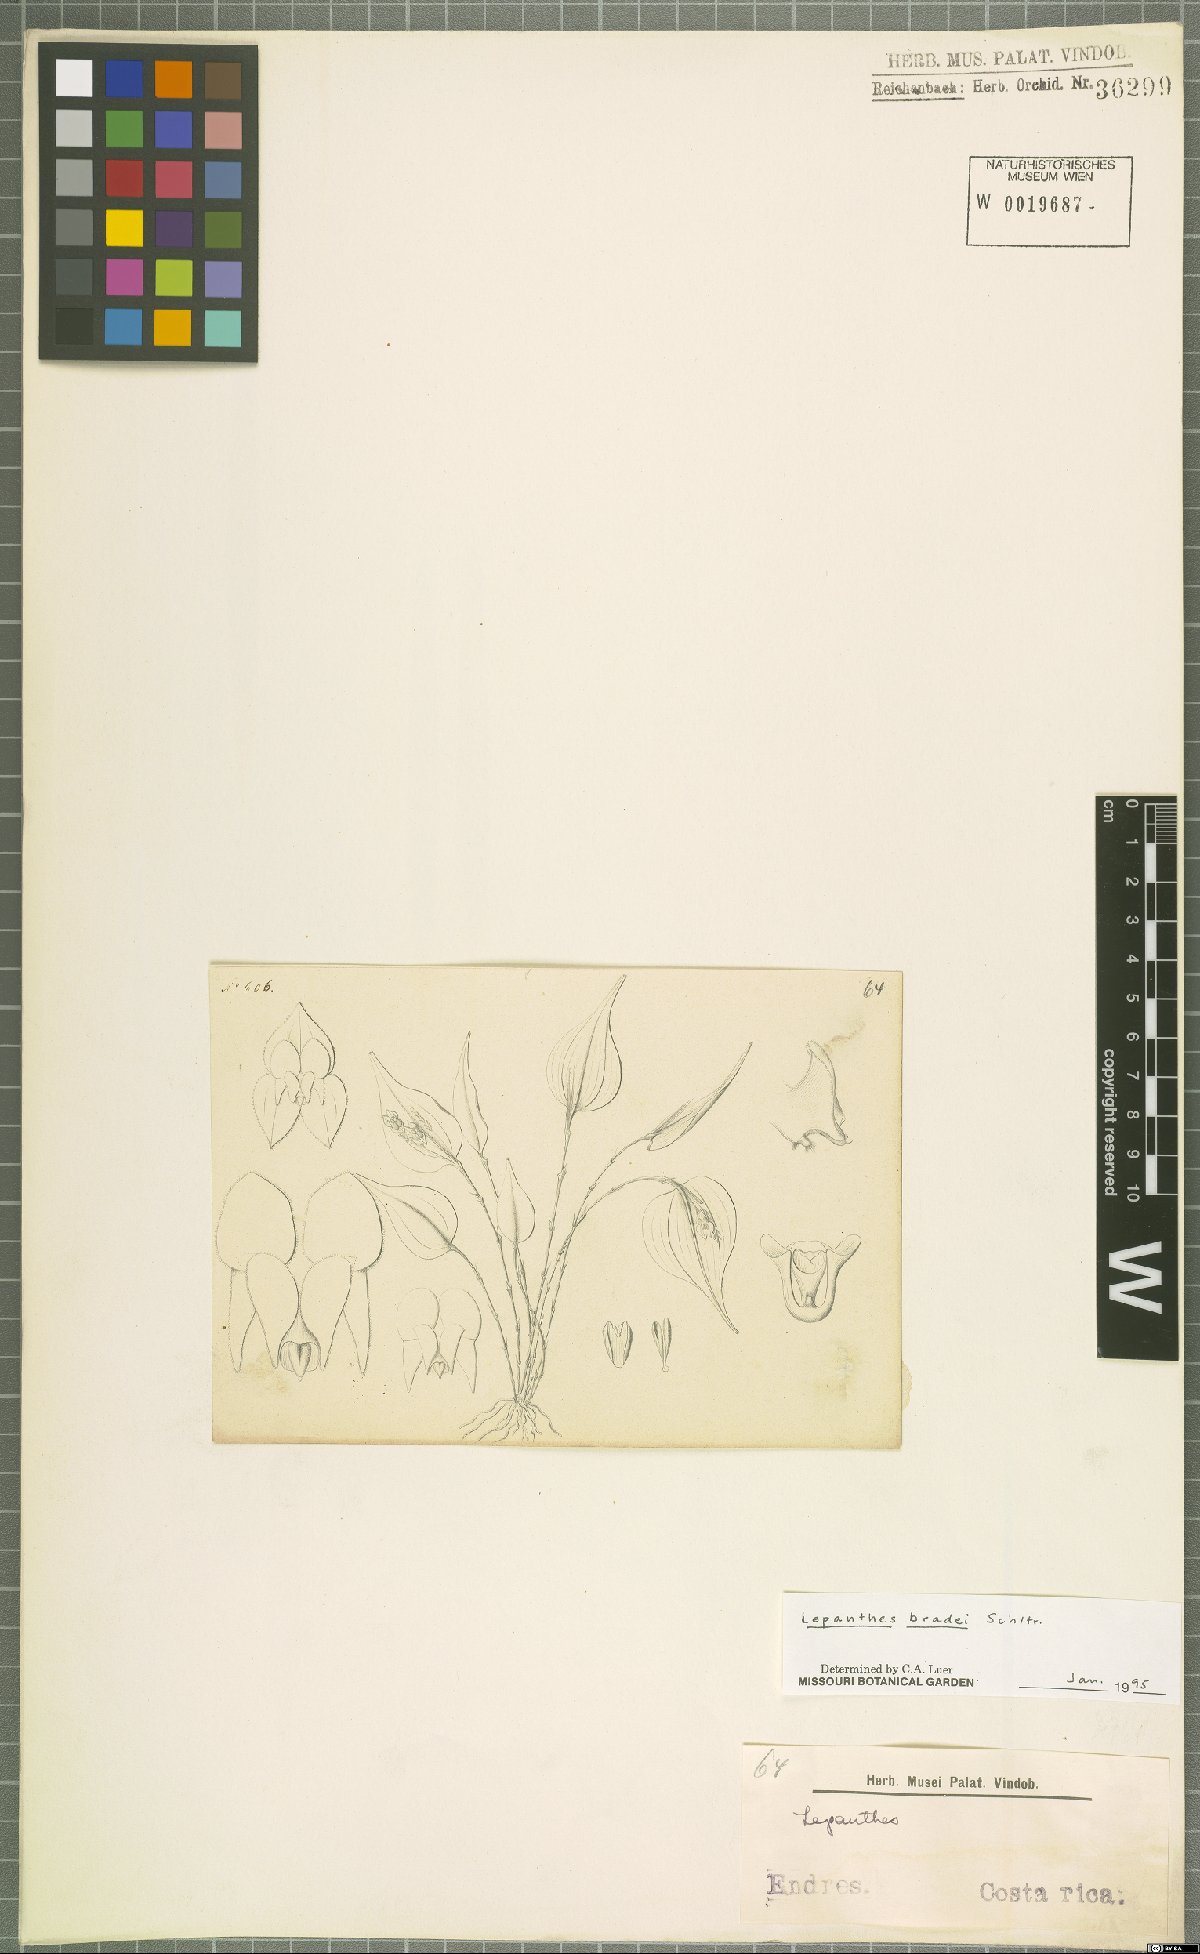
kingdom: Plantae
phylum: Tracheophyta
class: Liliopsida
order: Asparagales
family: Orchidaceae
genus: Lepanthes
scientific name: Lepanthes bradei
